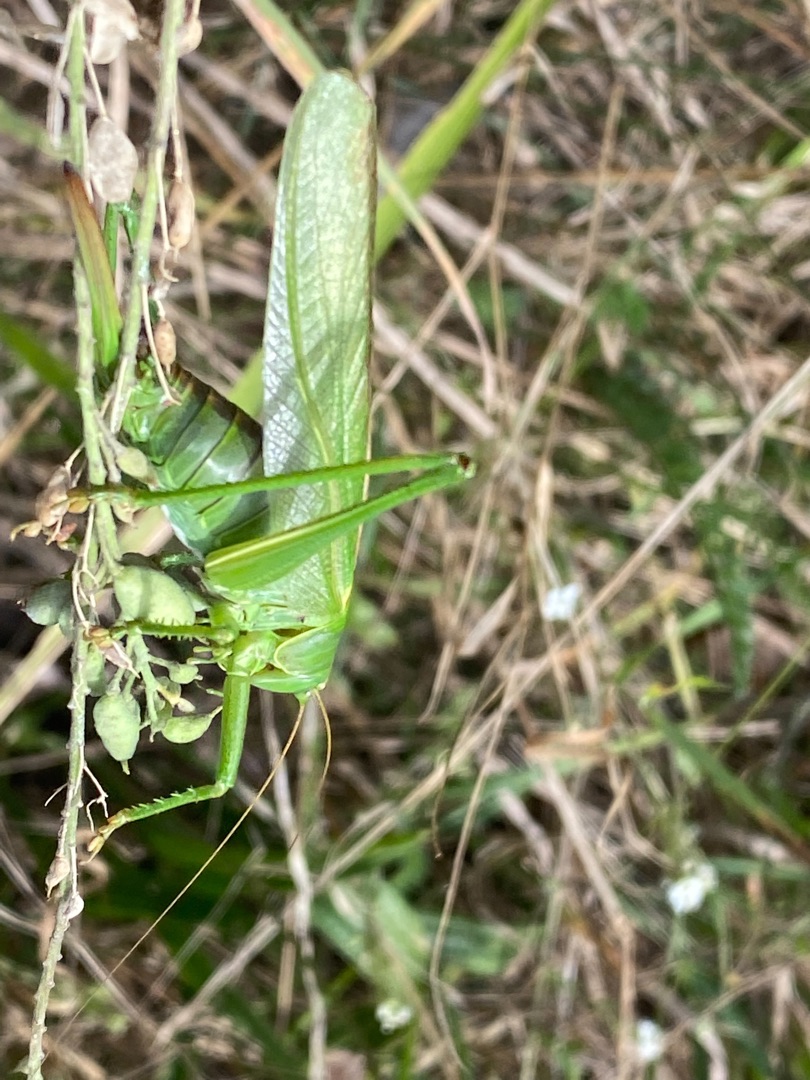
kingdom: Animalia
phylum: Arthropoda
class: Insecta
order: Orthoptera
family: Tettigoniidae
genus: Tettigonia
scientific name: Tettigonia viridissima
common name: Stor grøn løvgræshoppe
